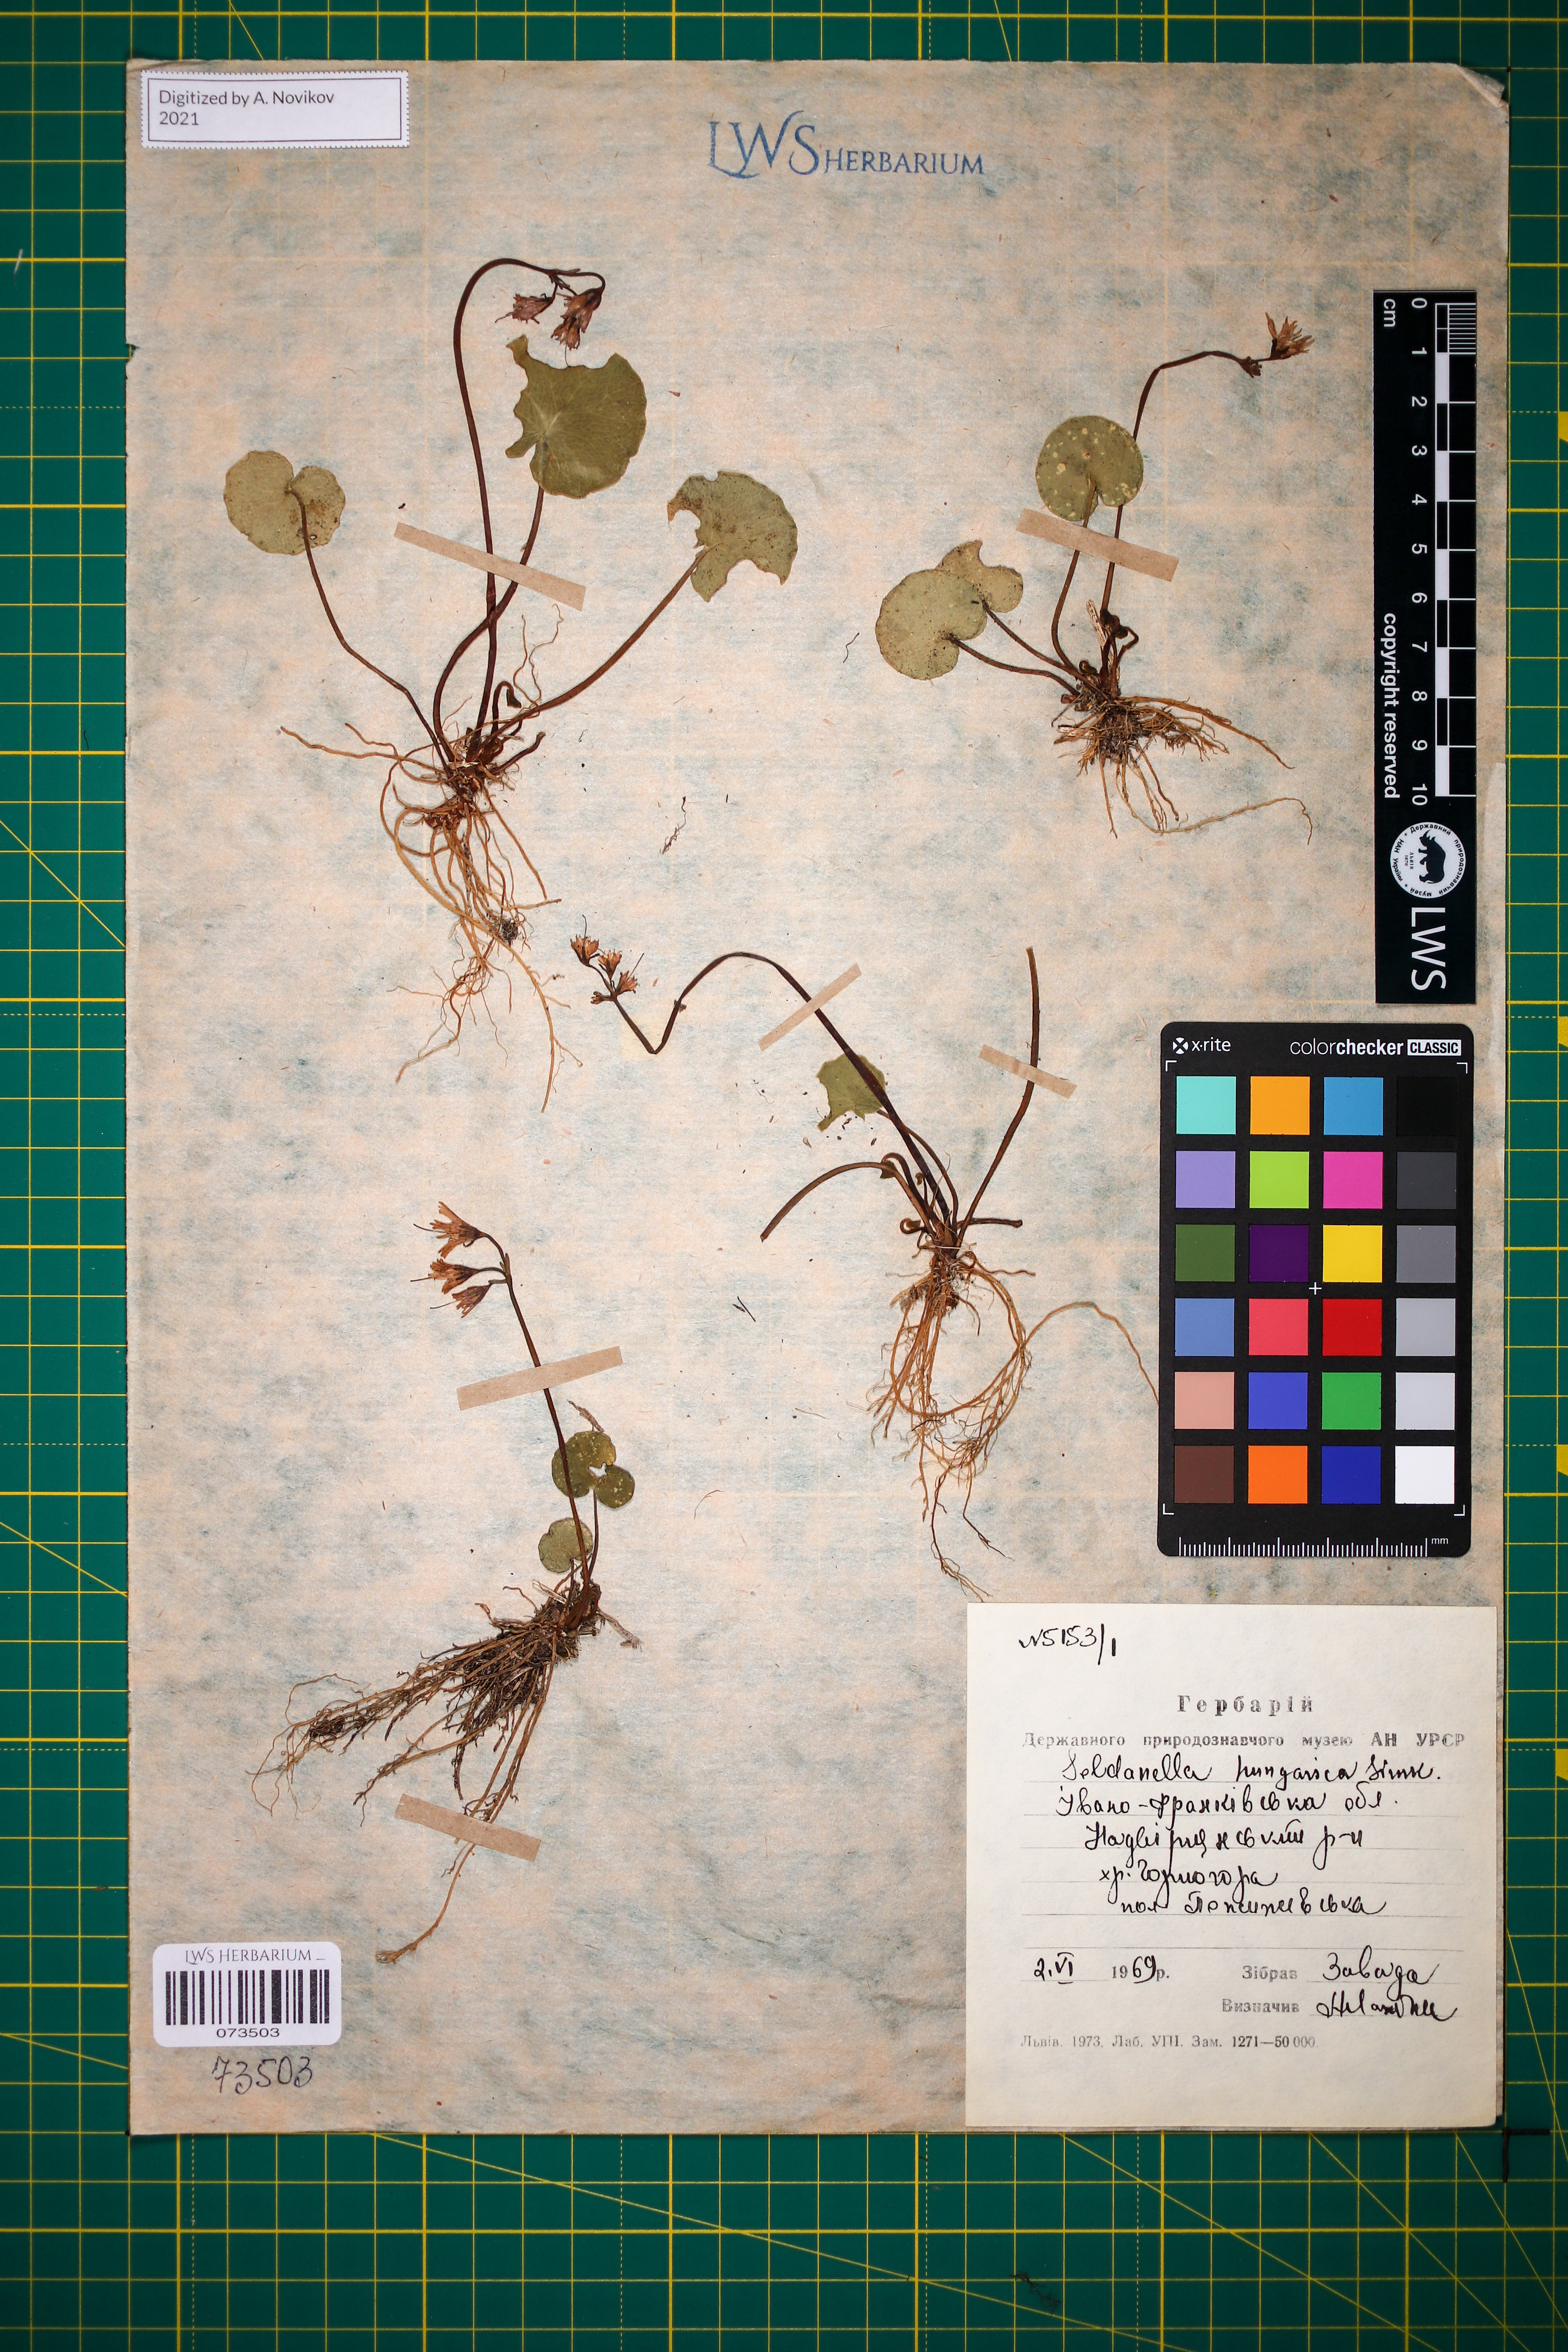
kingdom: Plantae
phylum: Tracheophyta
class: Magnoliopsida
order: Ericales
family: Primulaceae
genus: Soldanella
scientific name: Soldanella hungarica
